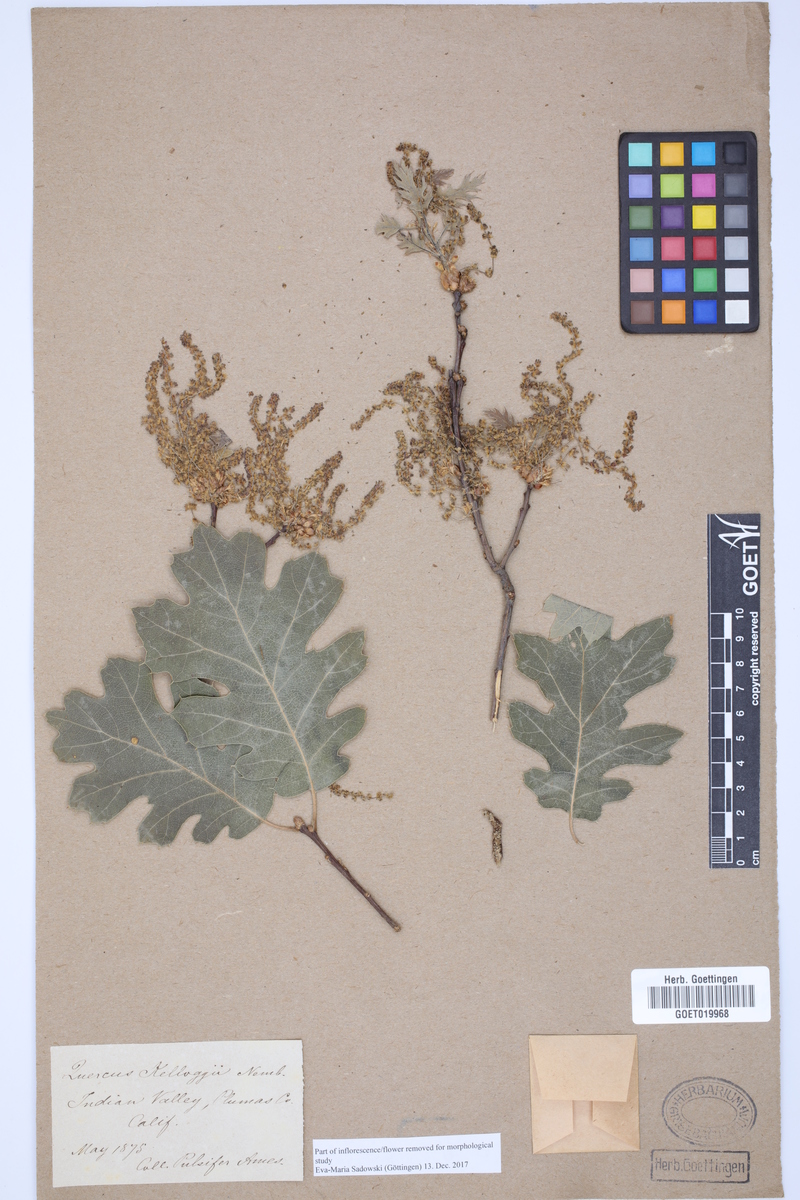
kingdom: Plantae
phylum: Tracheophyta
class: Magnoliopsida
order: Fagales
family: Fagaceae
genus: Quercus
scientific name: Quercus kelloggii
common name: California black oak
